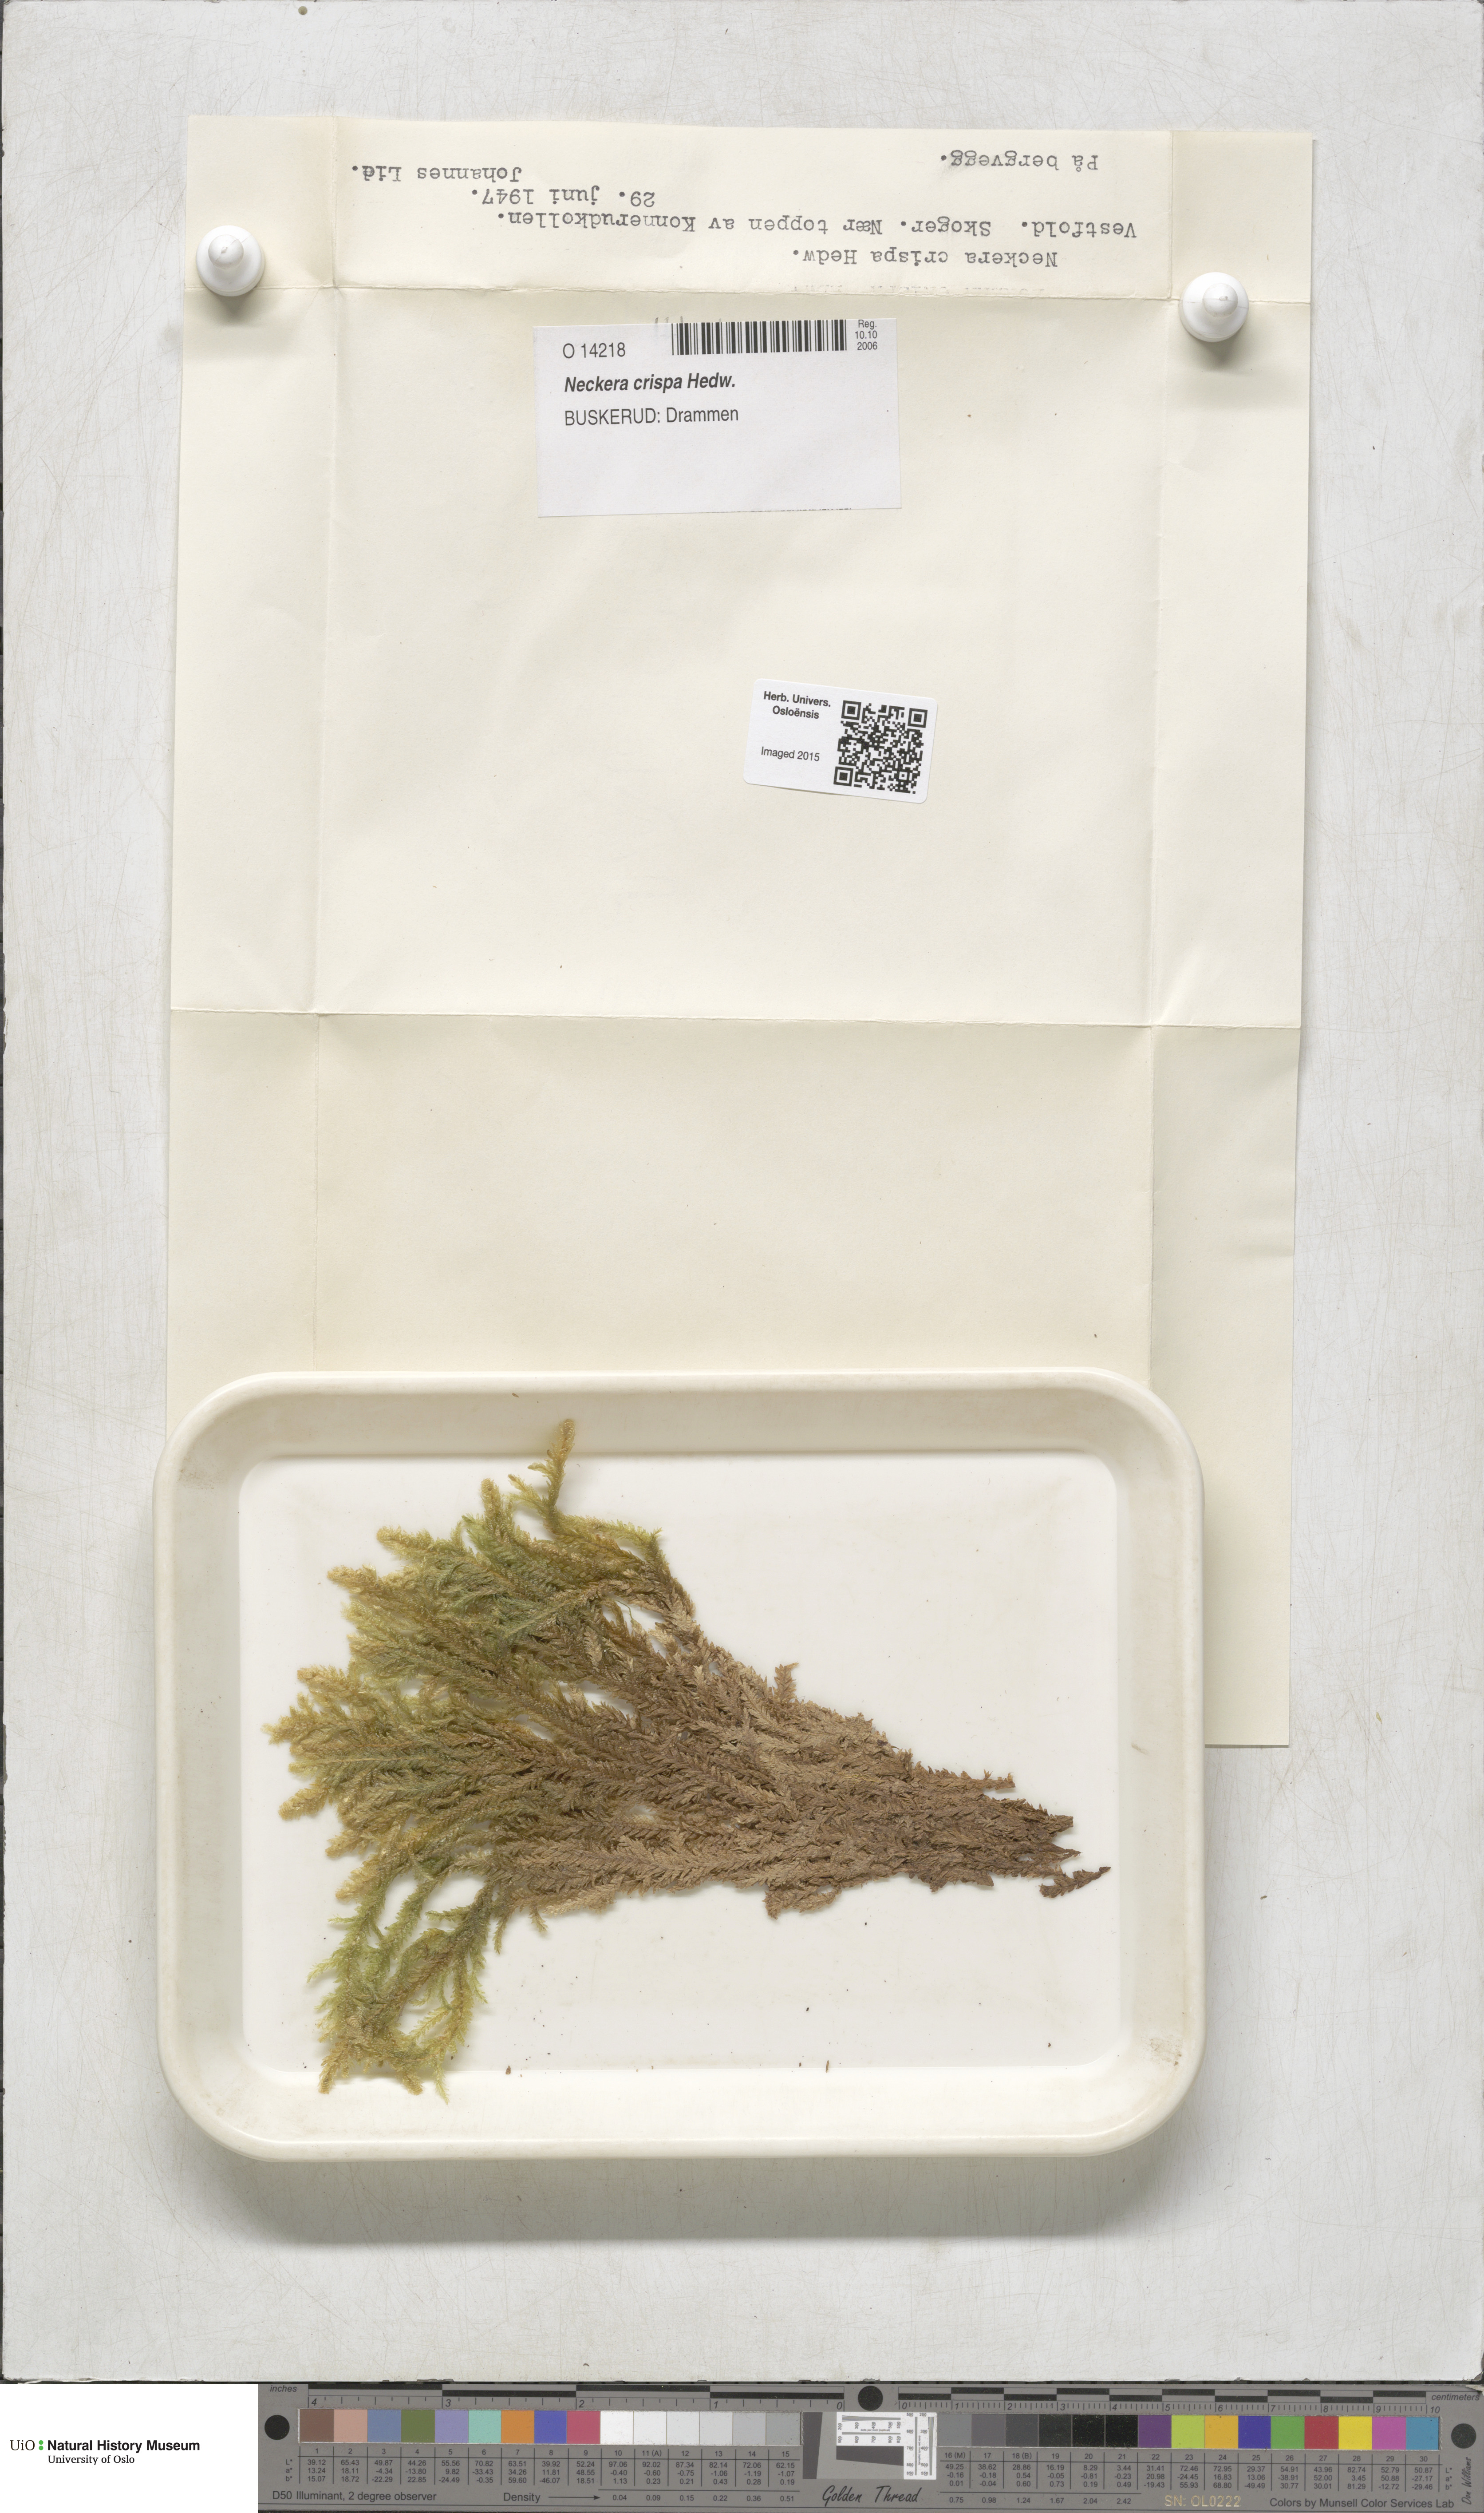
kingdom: Plantae
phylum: Bryophyta
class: Bryopsida
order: Hypnales
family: Neckeraceae
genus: Exsertotheca
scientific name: Exsertotheca crispa
